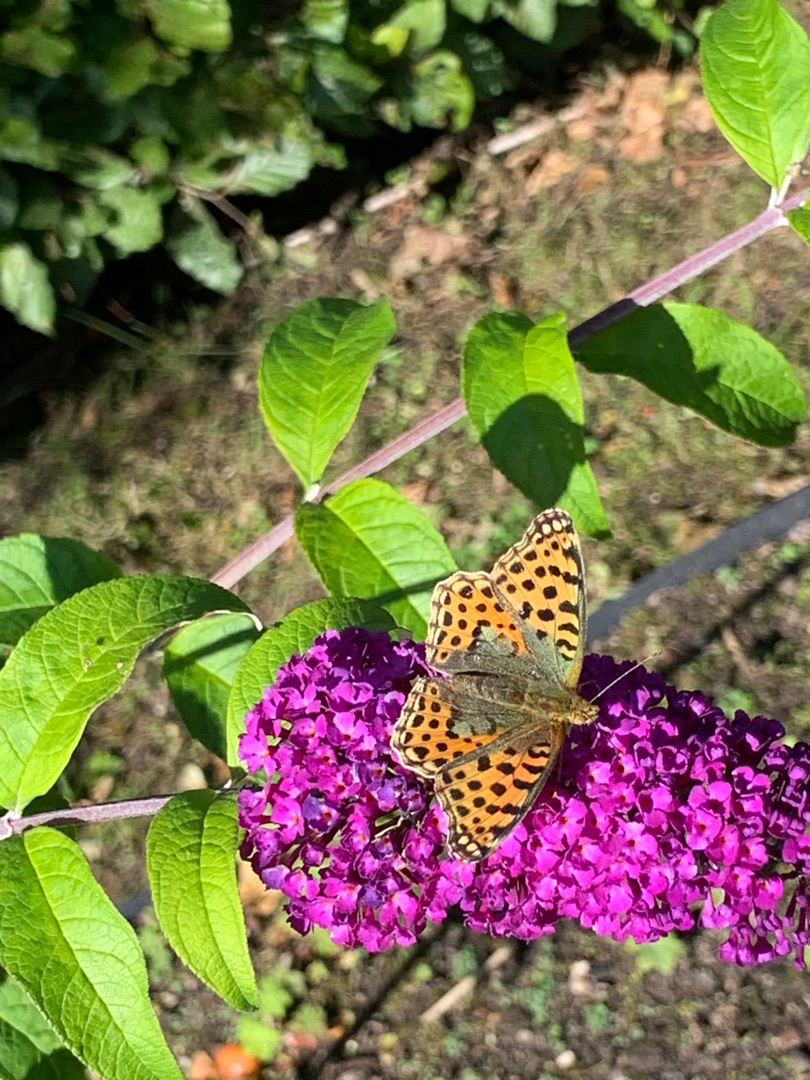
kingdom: Animalia
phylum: Arthropoda
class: Insecta
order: Lepidoptera
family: Nymphalidae
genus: Issoria
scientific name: Issoria lathonia
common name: Storplettet perlemorsommerfugl
